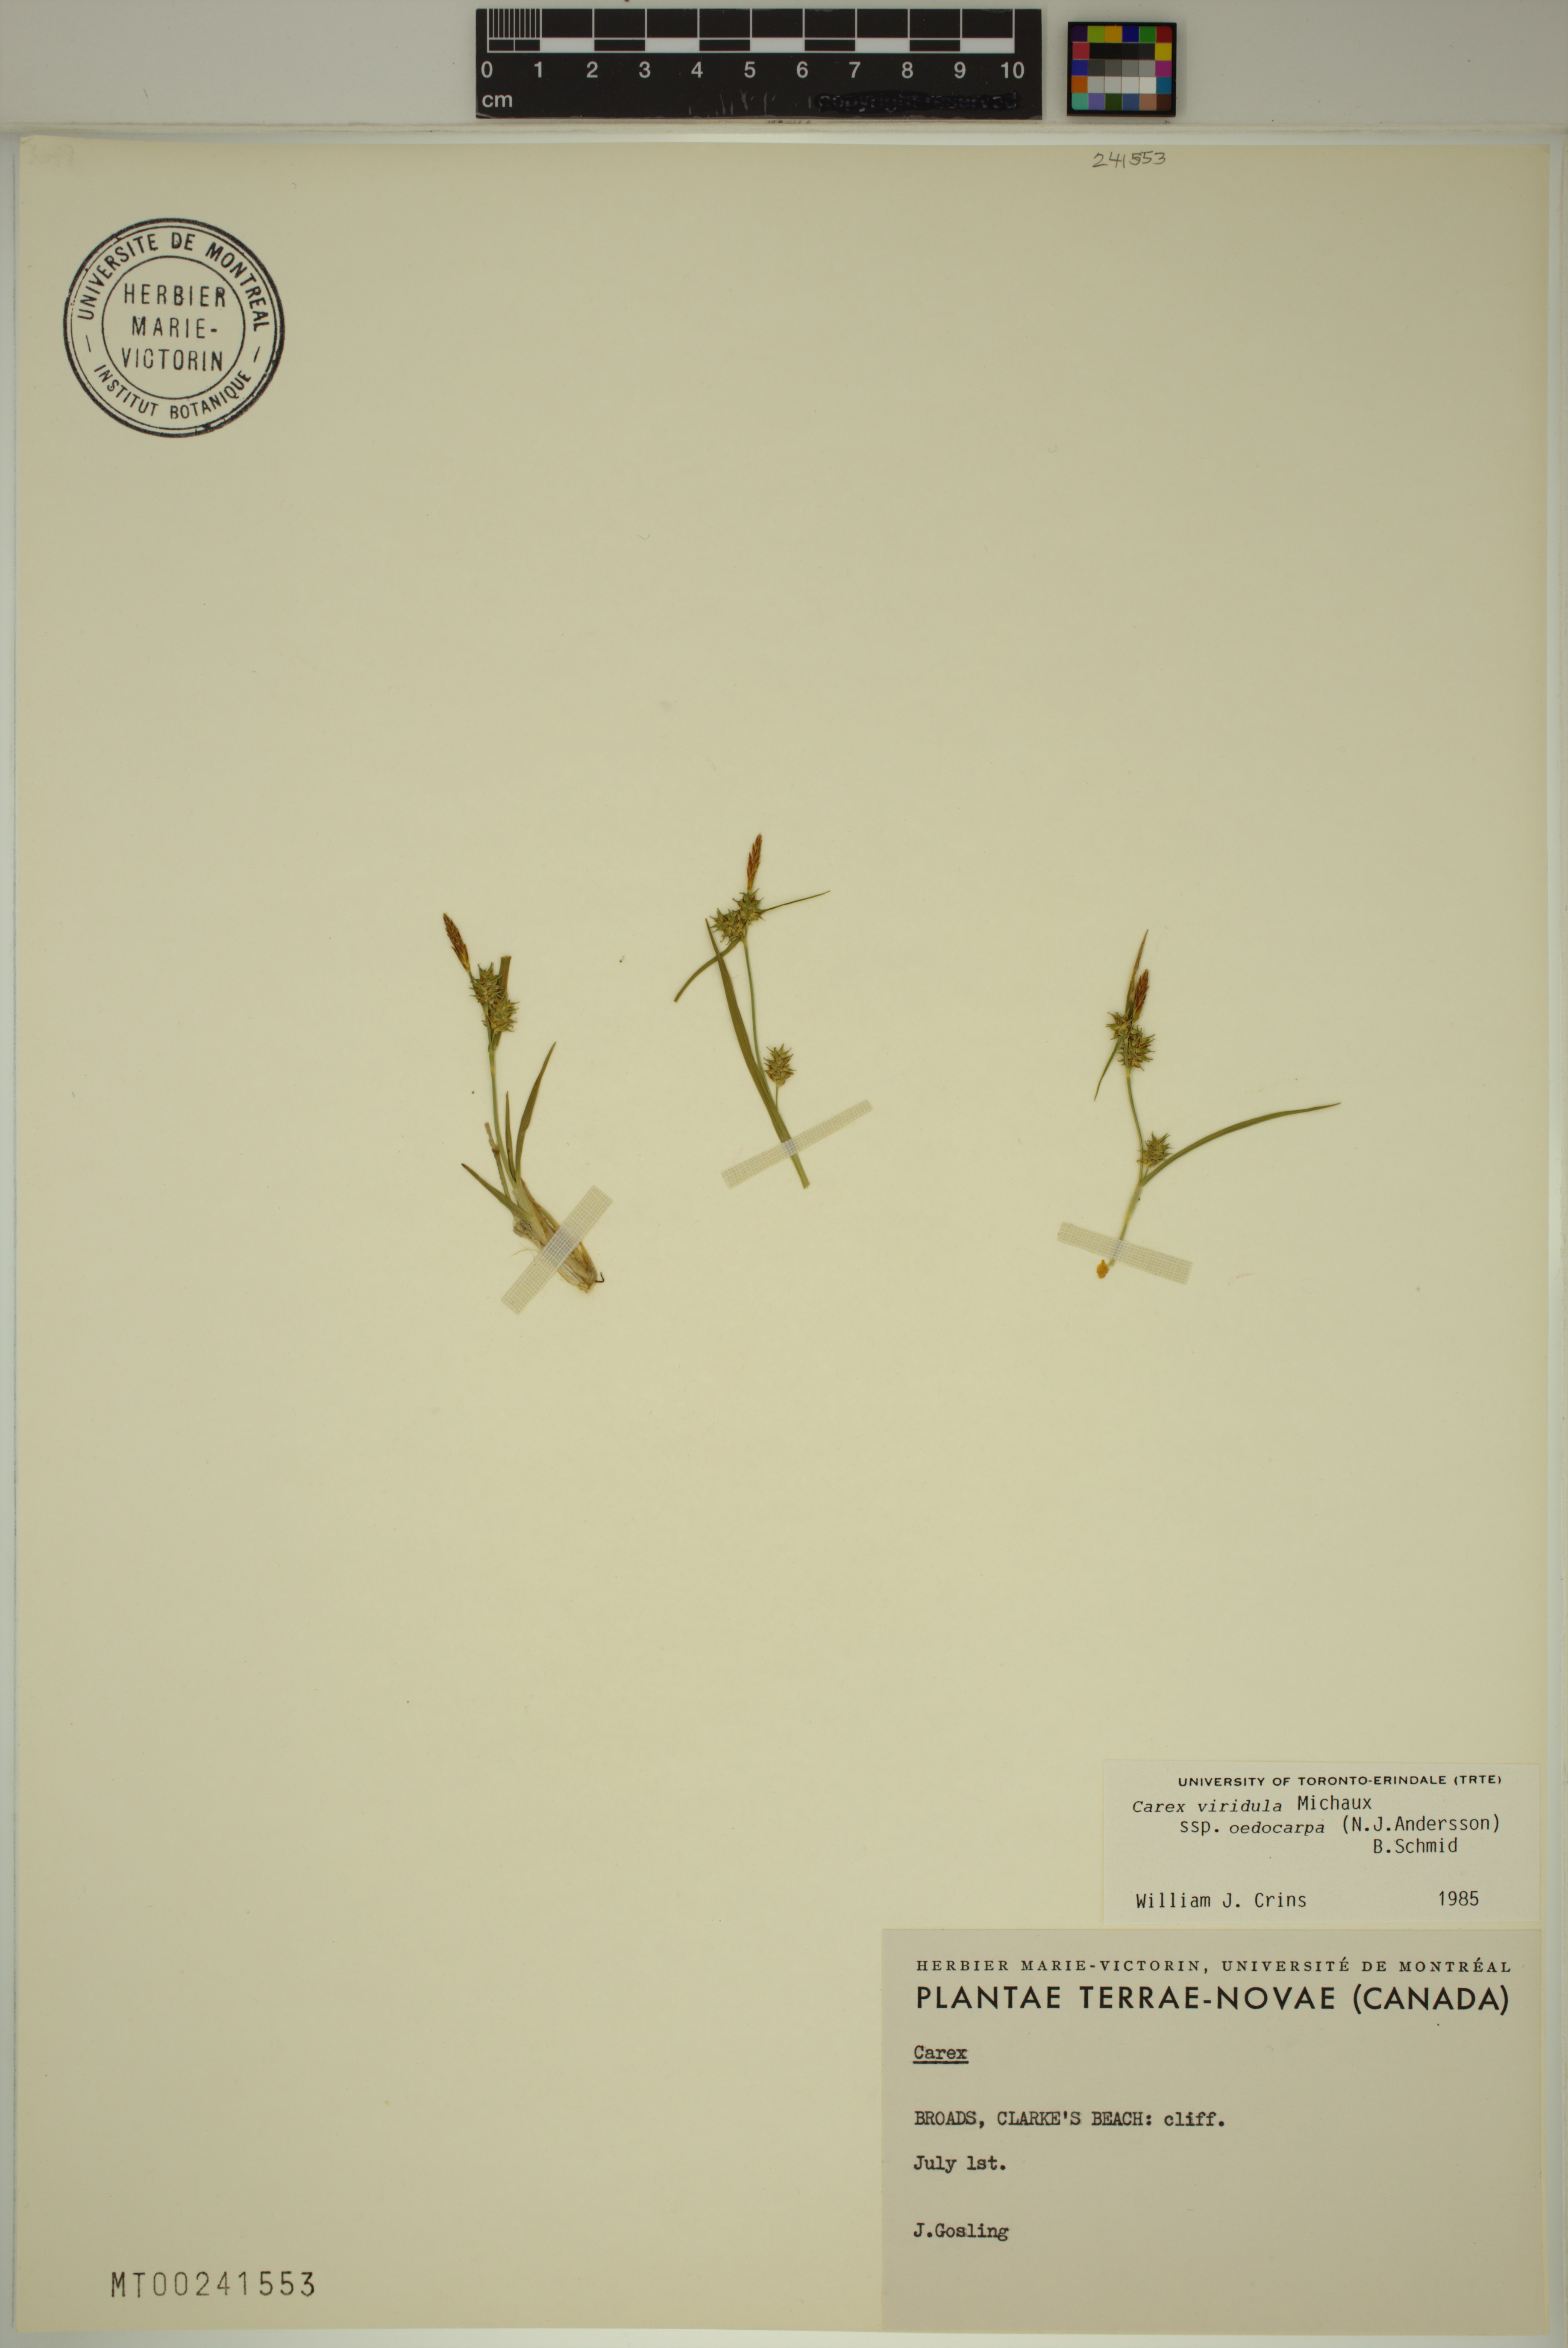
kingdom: Plantae
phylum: Tracheophyta
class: Liliopsida
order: Poales
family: Cyperaceae
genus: Carex
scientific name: Carex demissa
